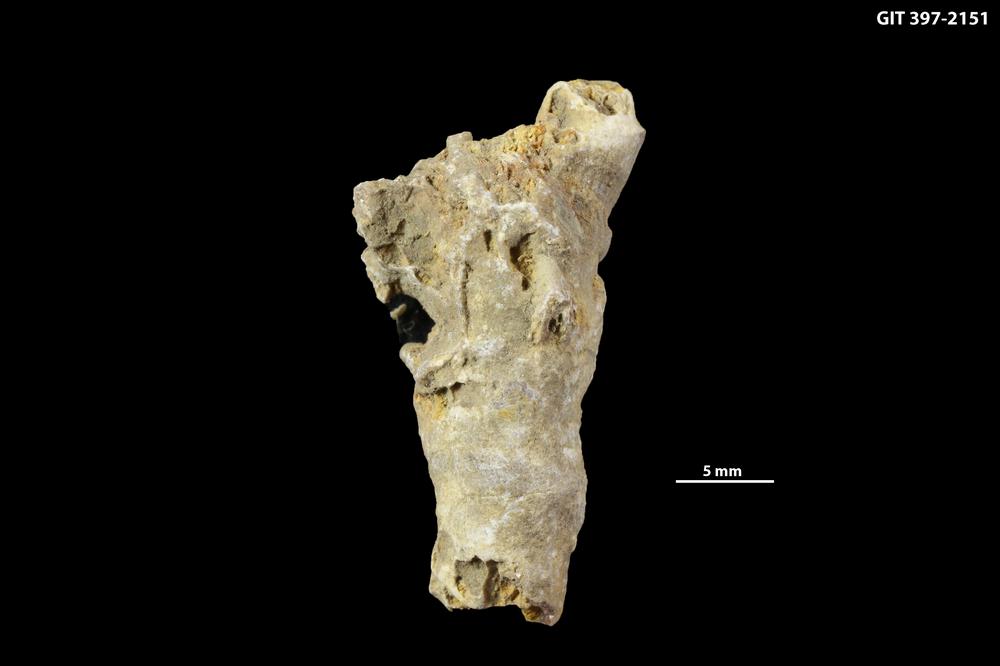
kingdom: Animalia
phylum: Cnidaria
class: Anthozoa
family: Cystiphyllidae
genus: Microplasma
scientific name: Microplasma
